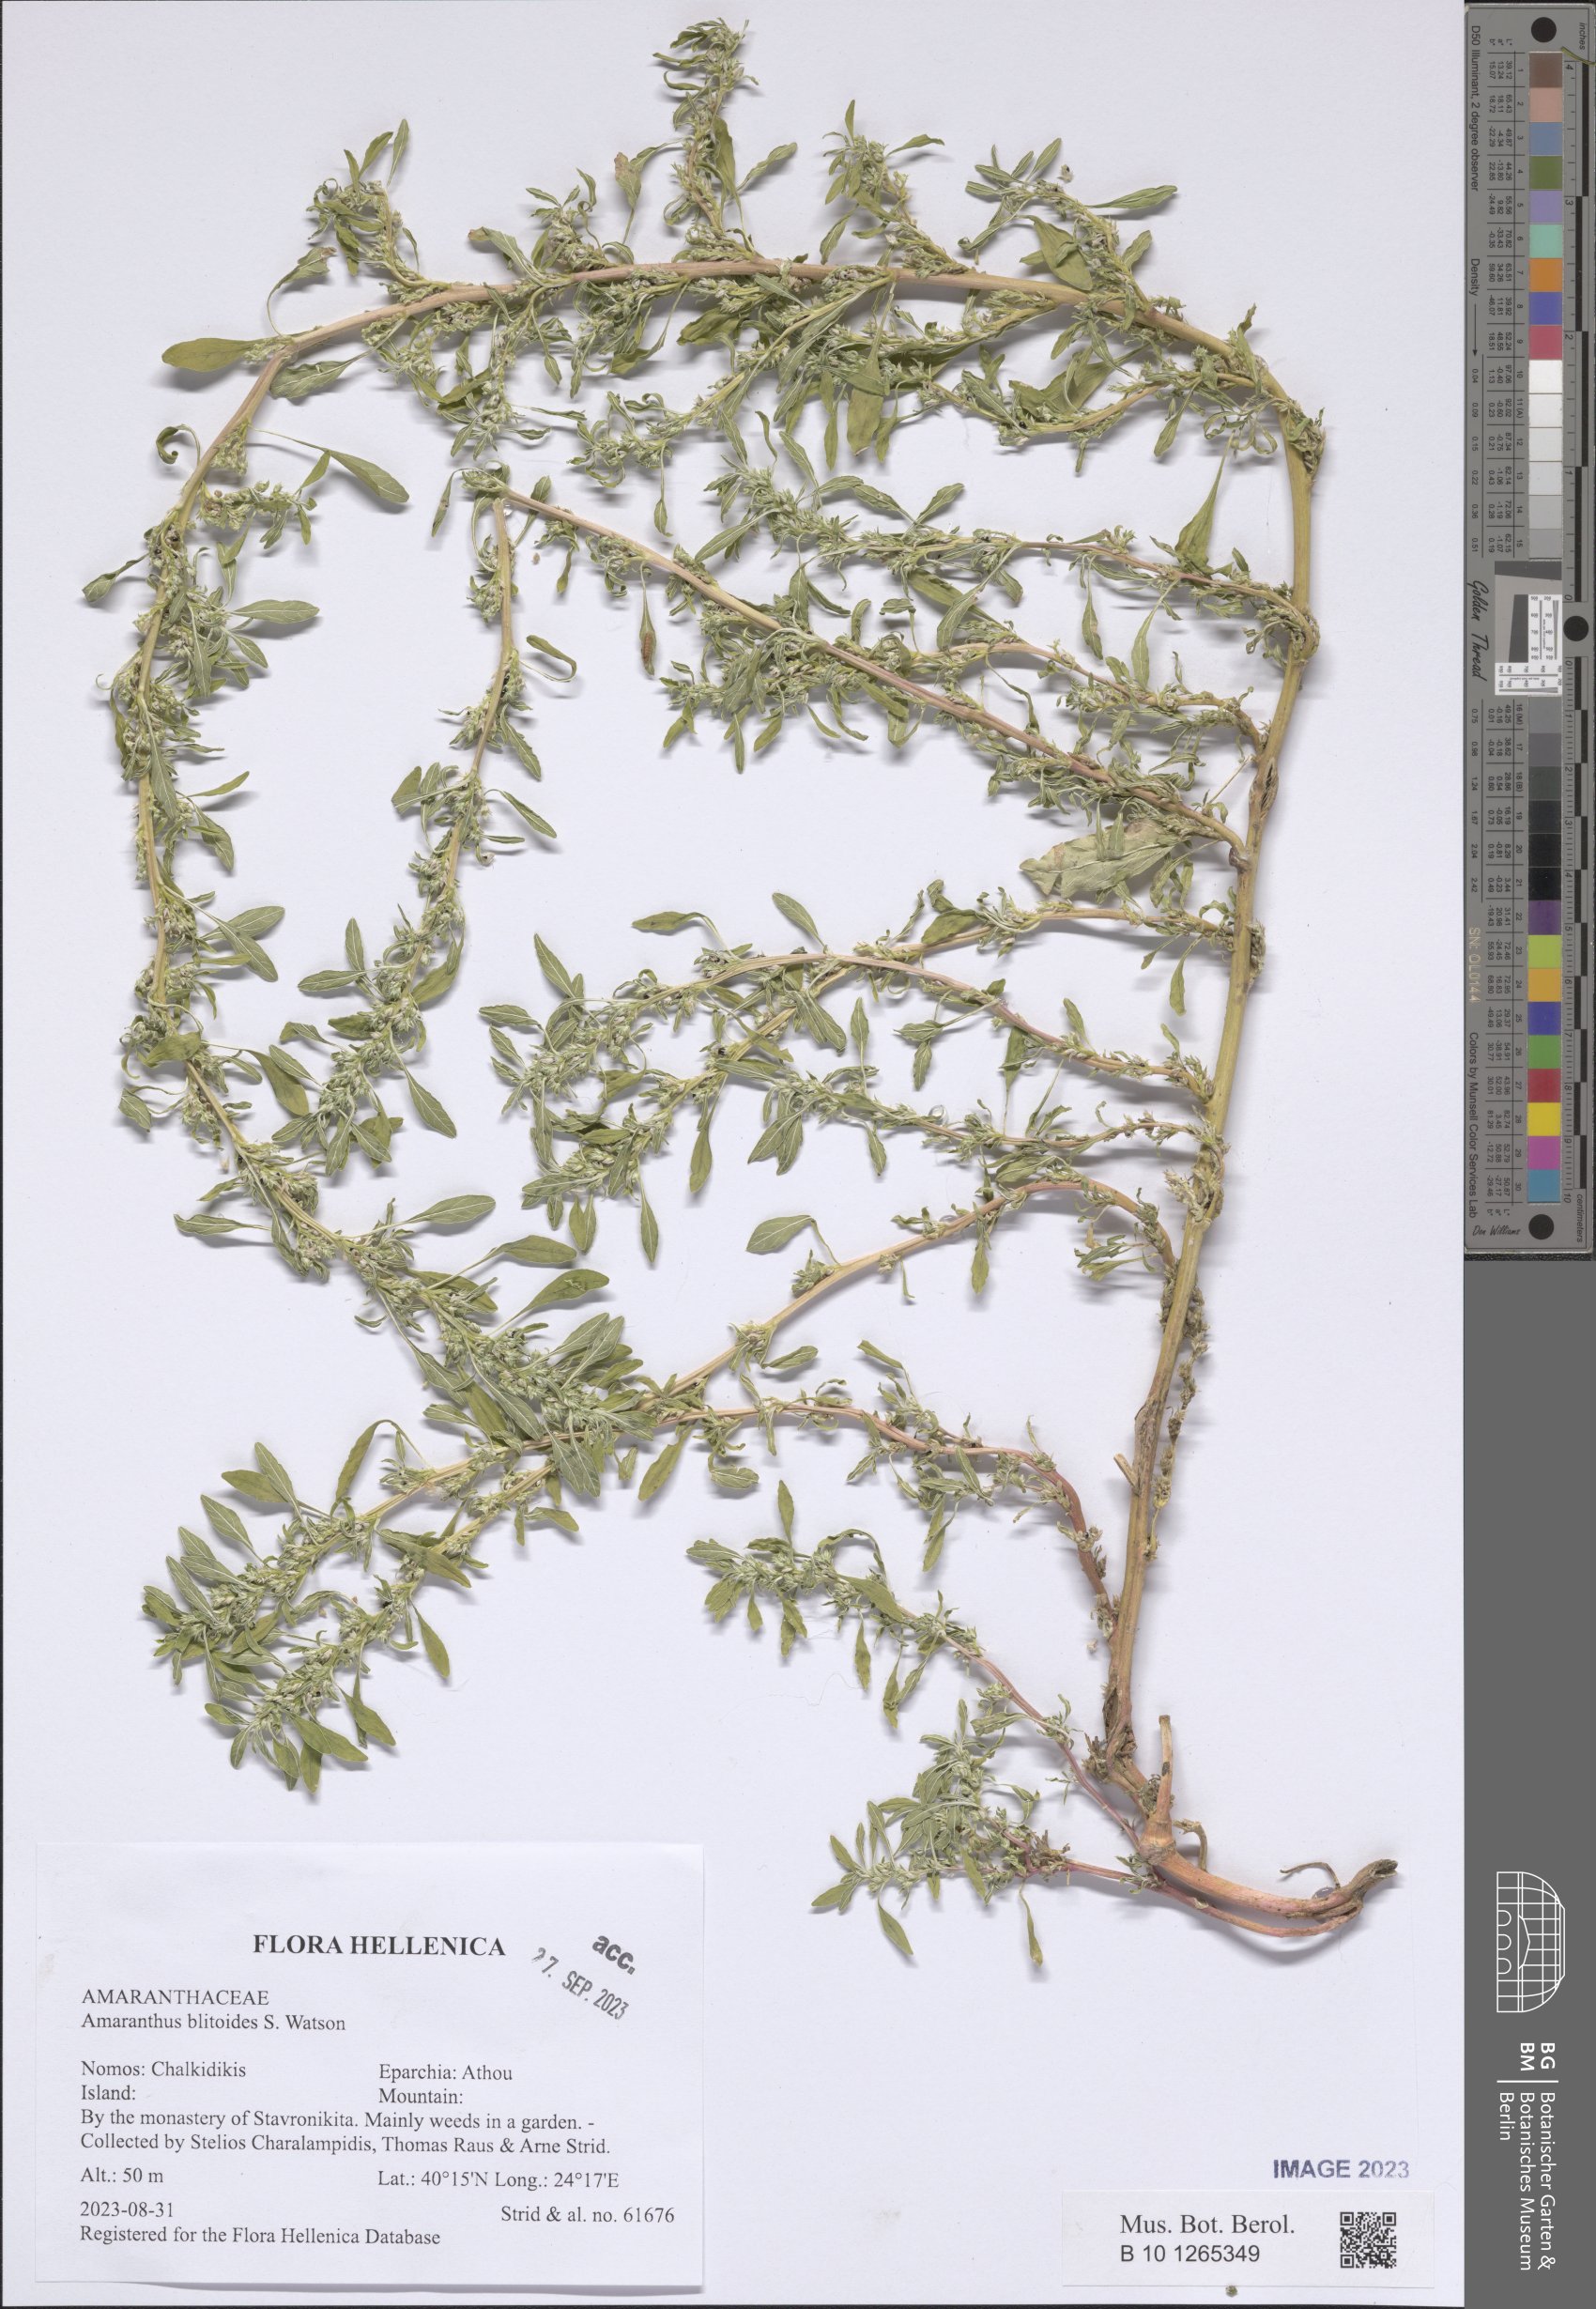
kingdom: Plantae
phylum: Tracheophyta
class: Magnoliopsida
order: Caryophyllales
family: Amaranthaceae
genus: Amaranthus
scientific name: Amaranthus blitoides
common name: Prostrate pigweed
